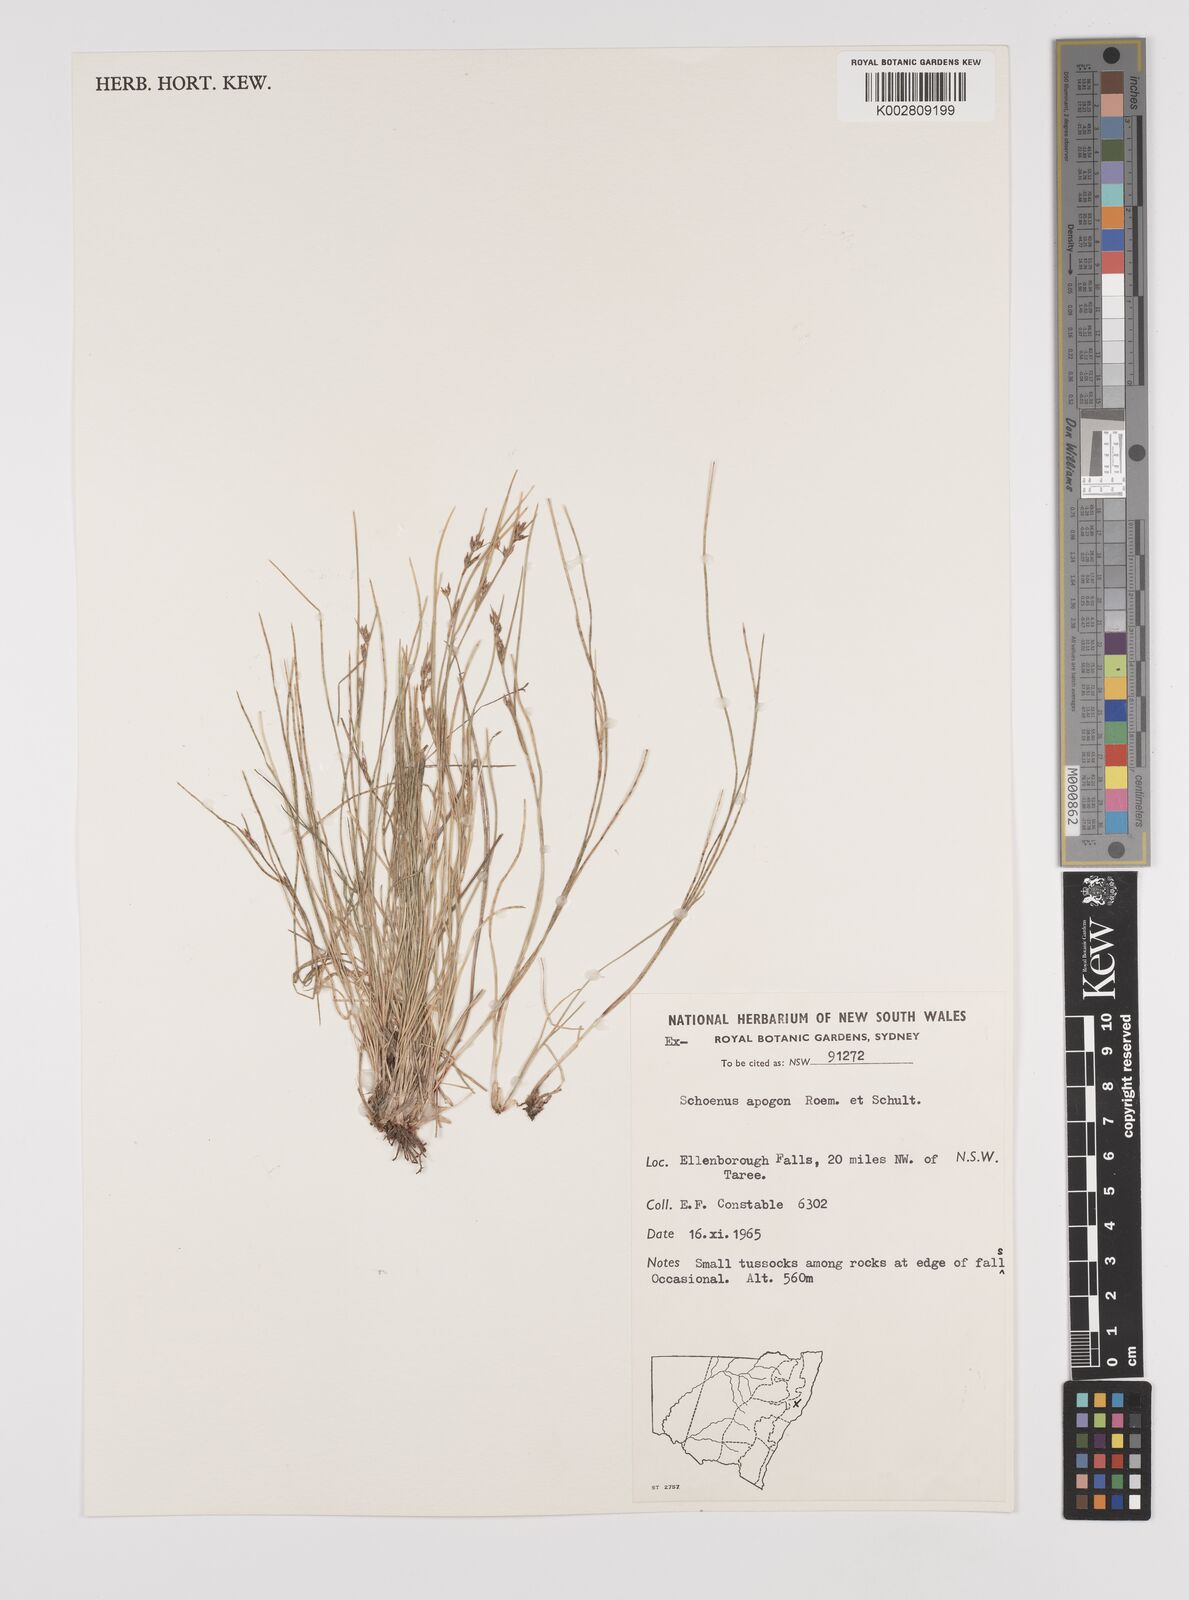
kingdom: Plantae
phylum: Tracheophyta
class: Liliopsida
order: Poales
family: Cyperaceae
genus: Schoenus
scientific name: Schoenus apogon
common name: Smooth bogrush
